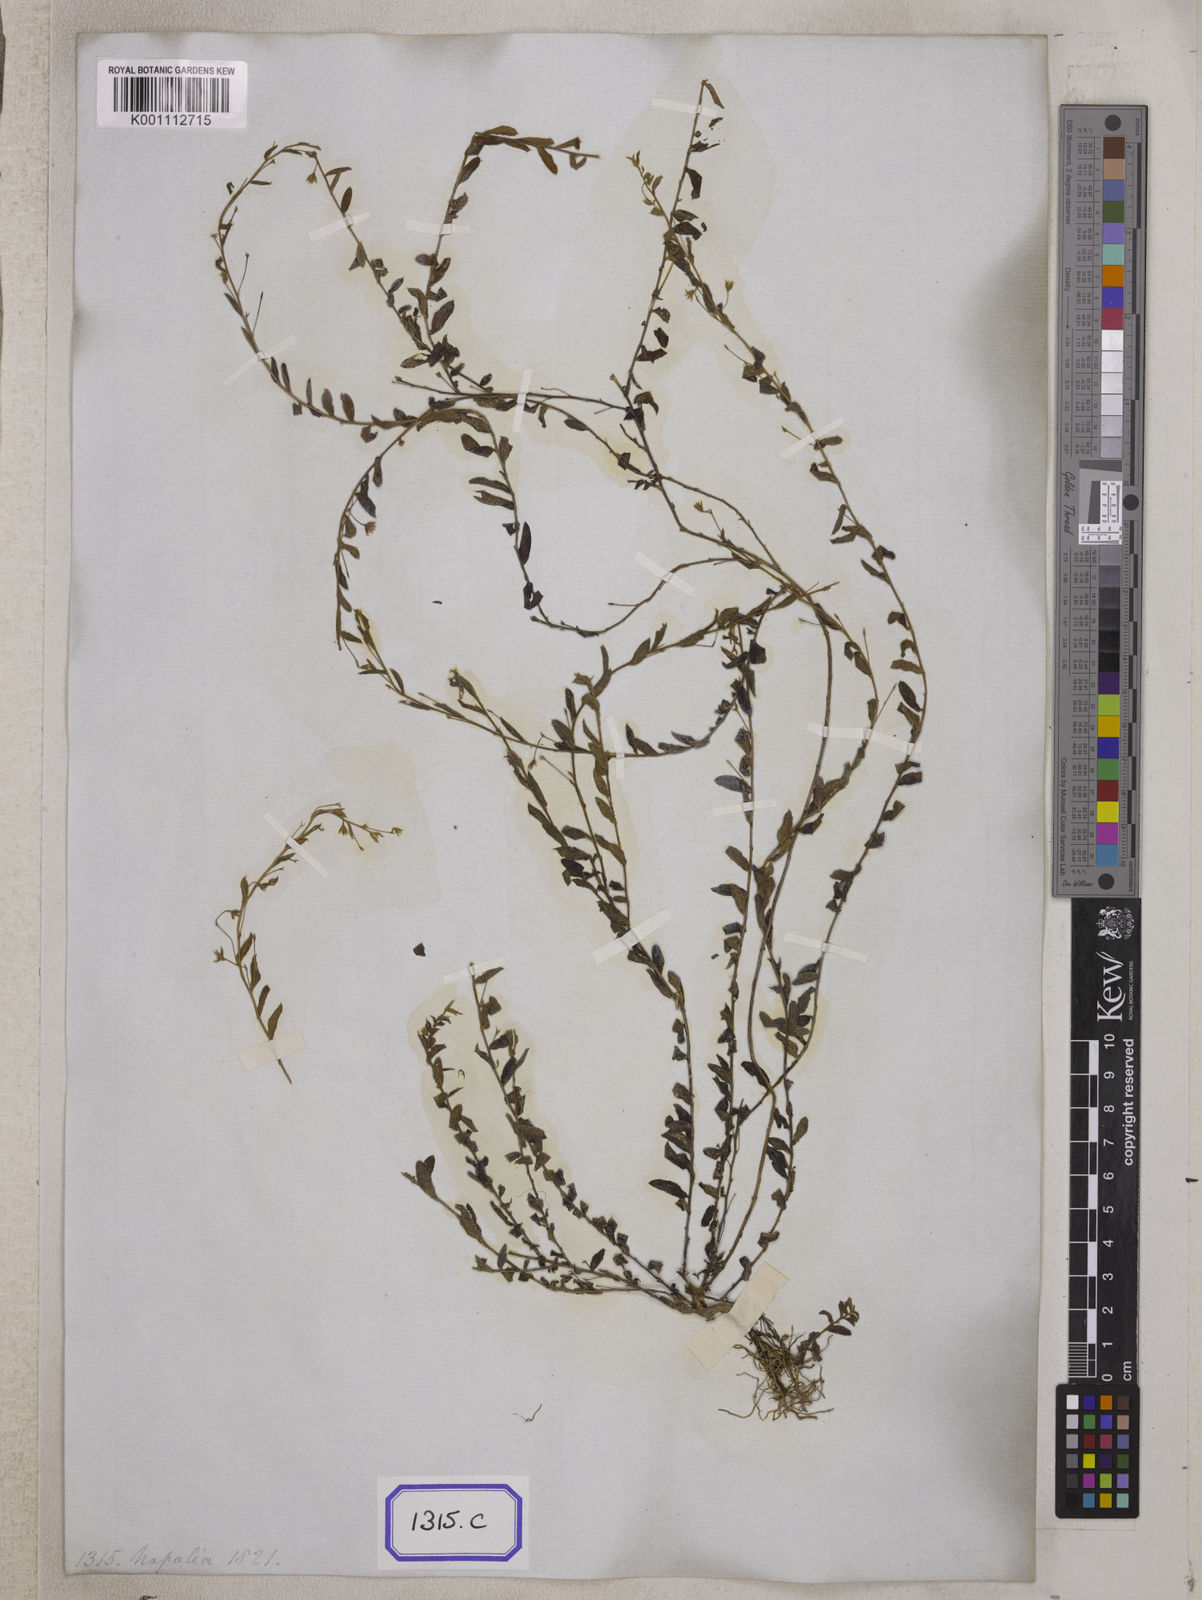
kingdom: Plantae
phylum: Tracheophyta
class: Magnoliopsida
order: Solanales
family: Convolvulaceae
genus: Evolvulus
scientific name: Evolvulus
